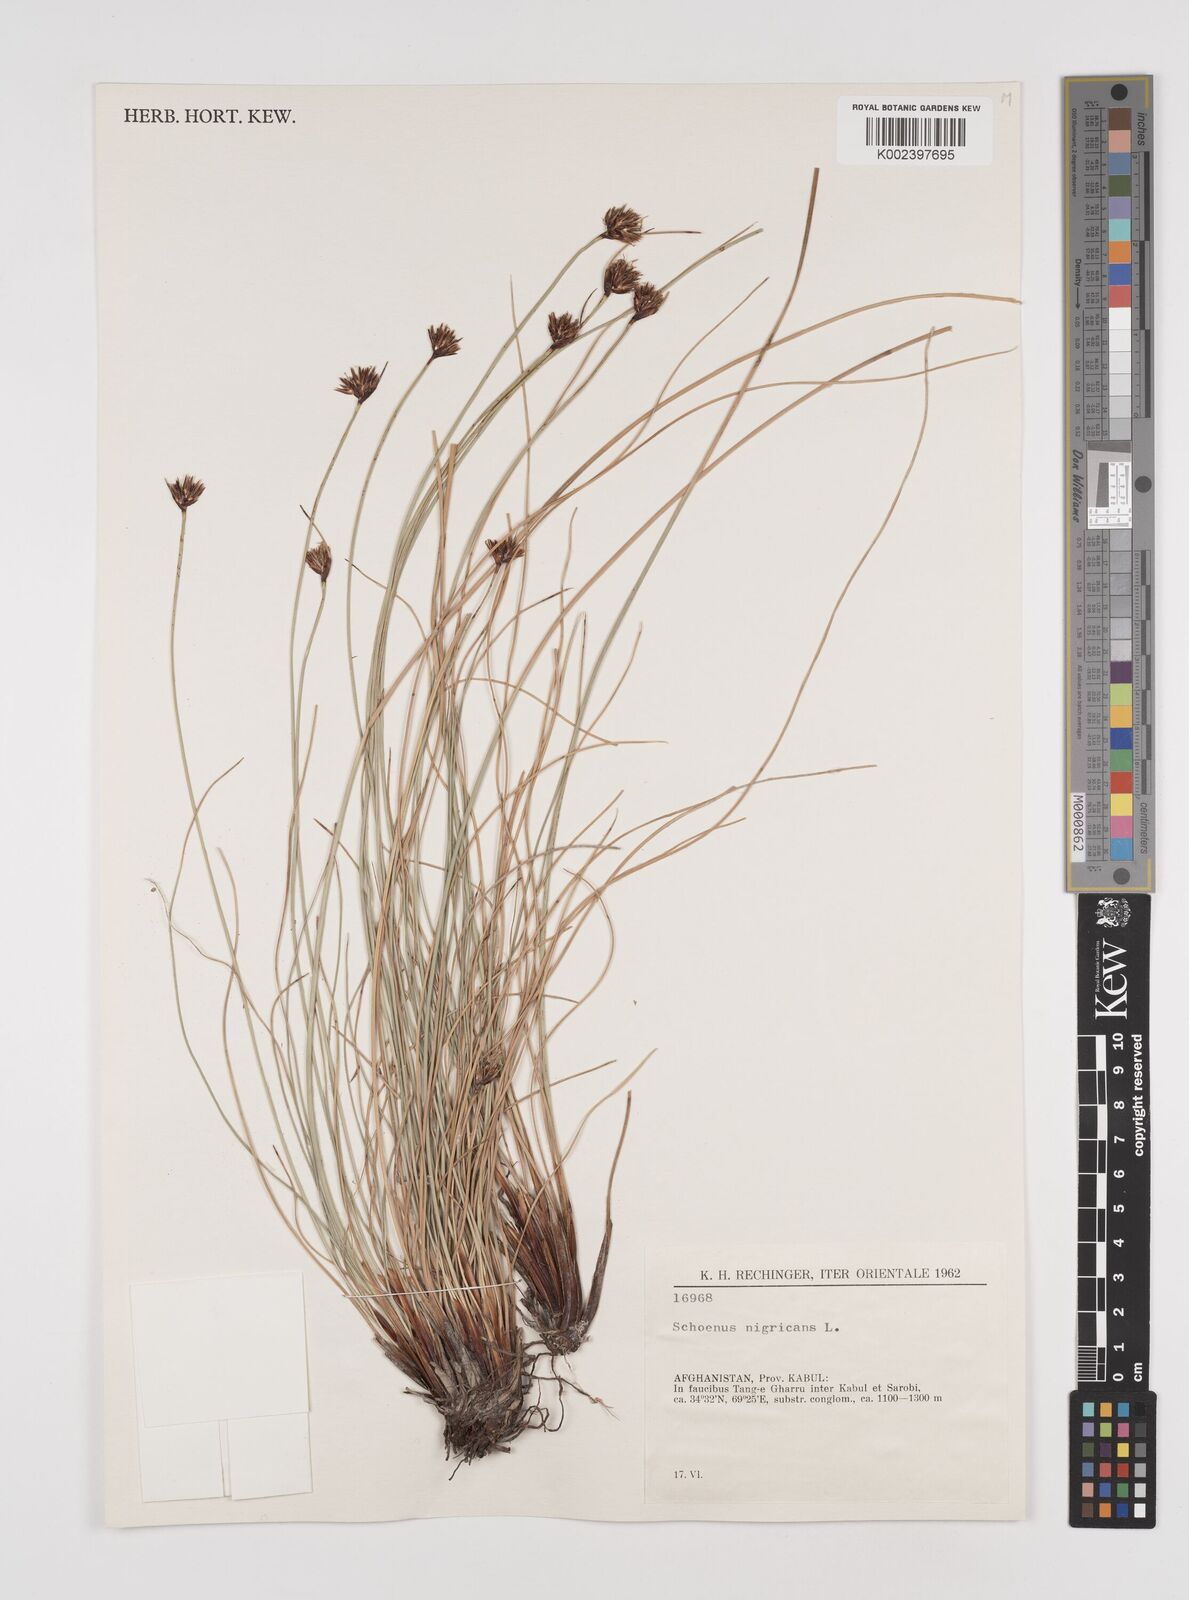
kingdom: Plantae
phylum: Tracheophyta
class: Liliopsida
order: Poales
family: Cyperaceae
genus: Schoenus
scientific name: Schoenus nigricans
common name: Black bog-rush
